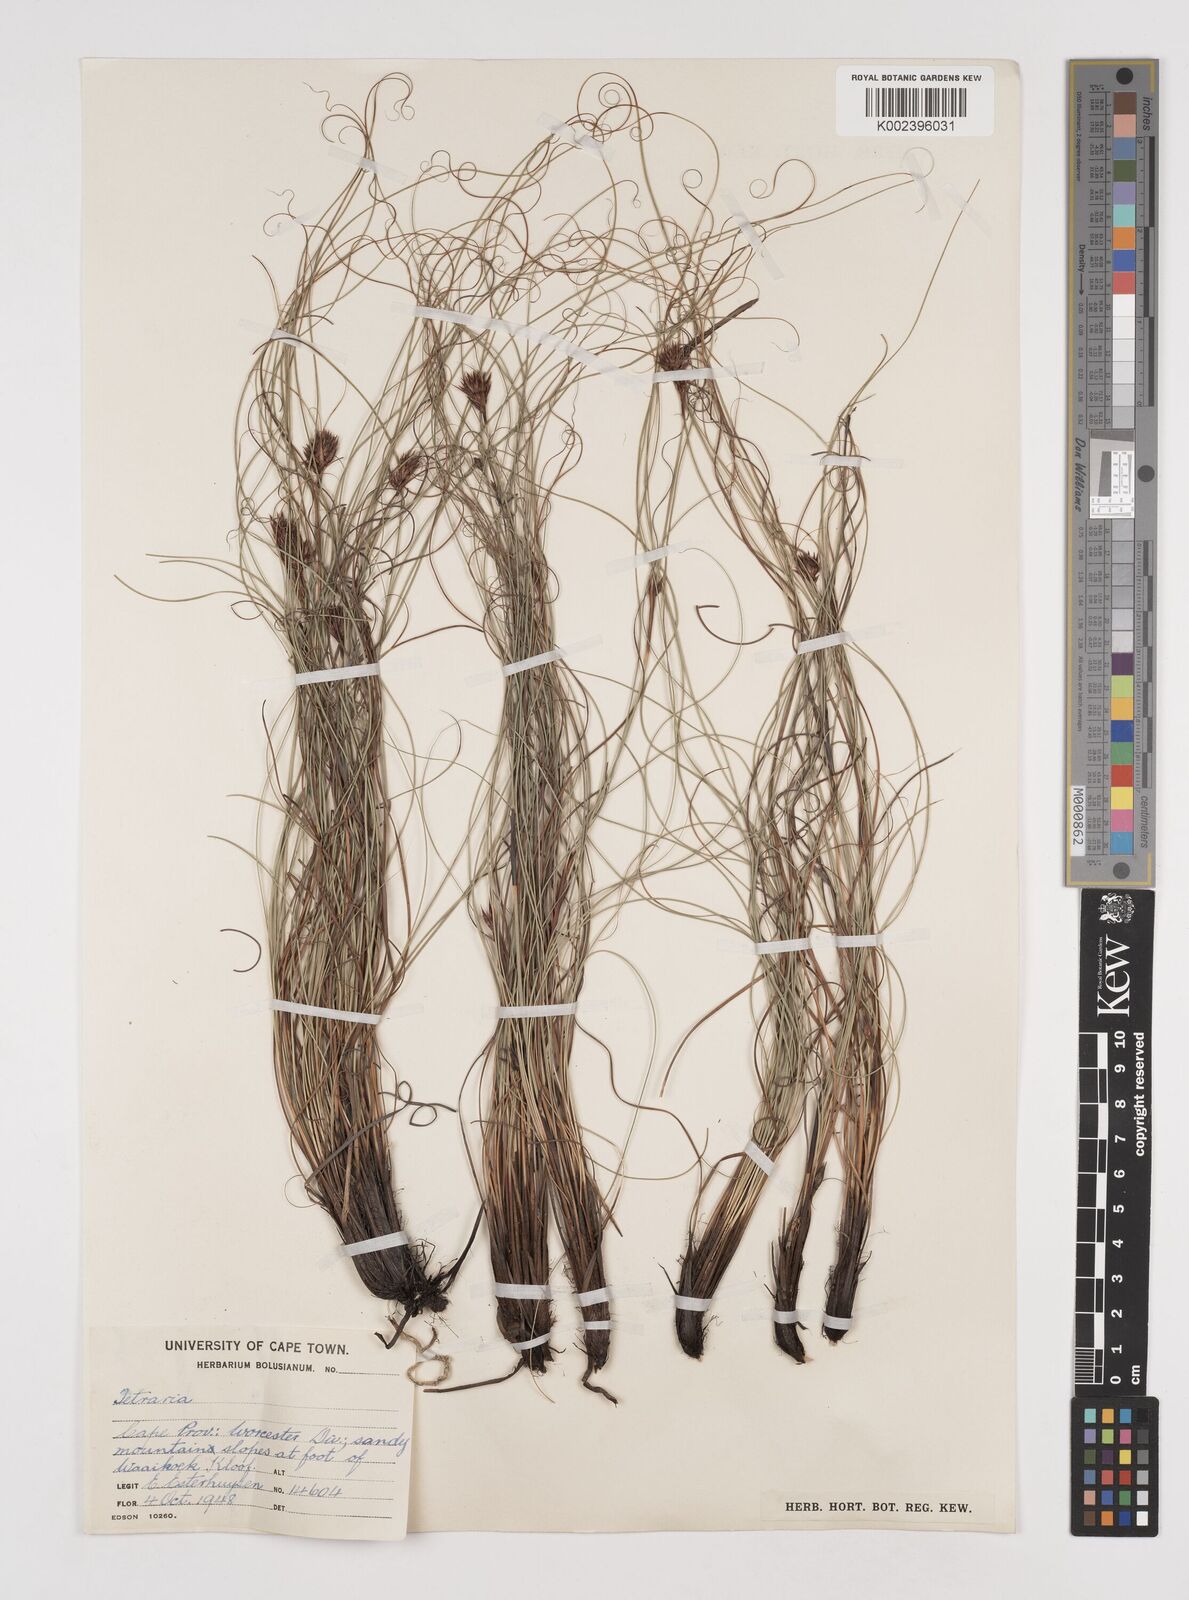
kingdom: Plantae
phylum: Tracheophyta
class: Liliopsida
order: Poales
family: Cyperaceae
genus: Tetraria
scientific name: Tetraria crinifolia
